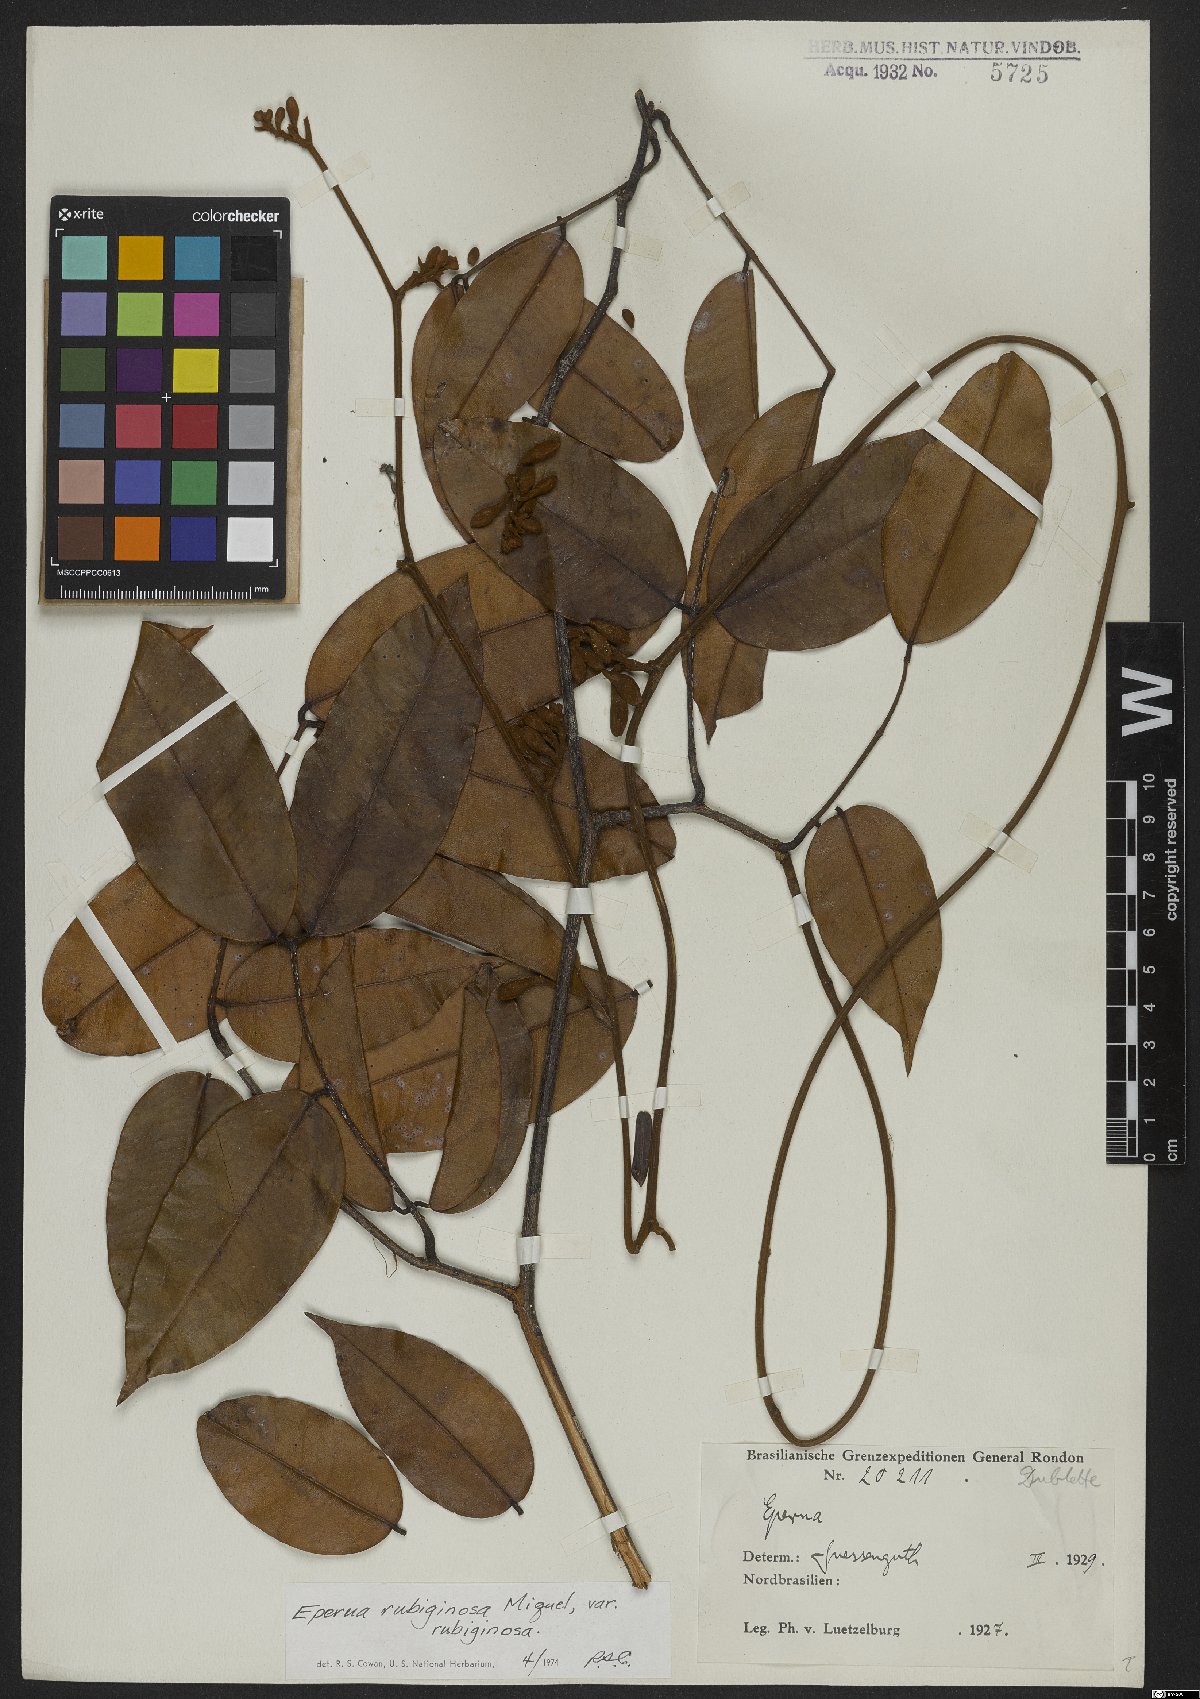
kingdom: Plantae
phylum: Tracheophyta
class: Magnoliopsida
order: Fabales
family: Fabaceae
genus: Eperua
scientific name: Eperua rubiginosa
